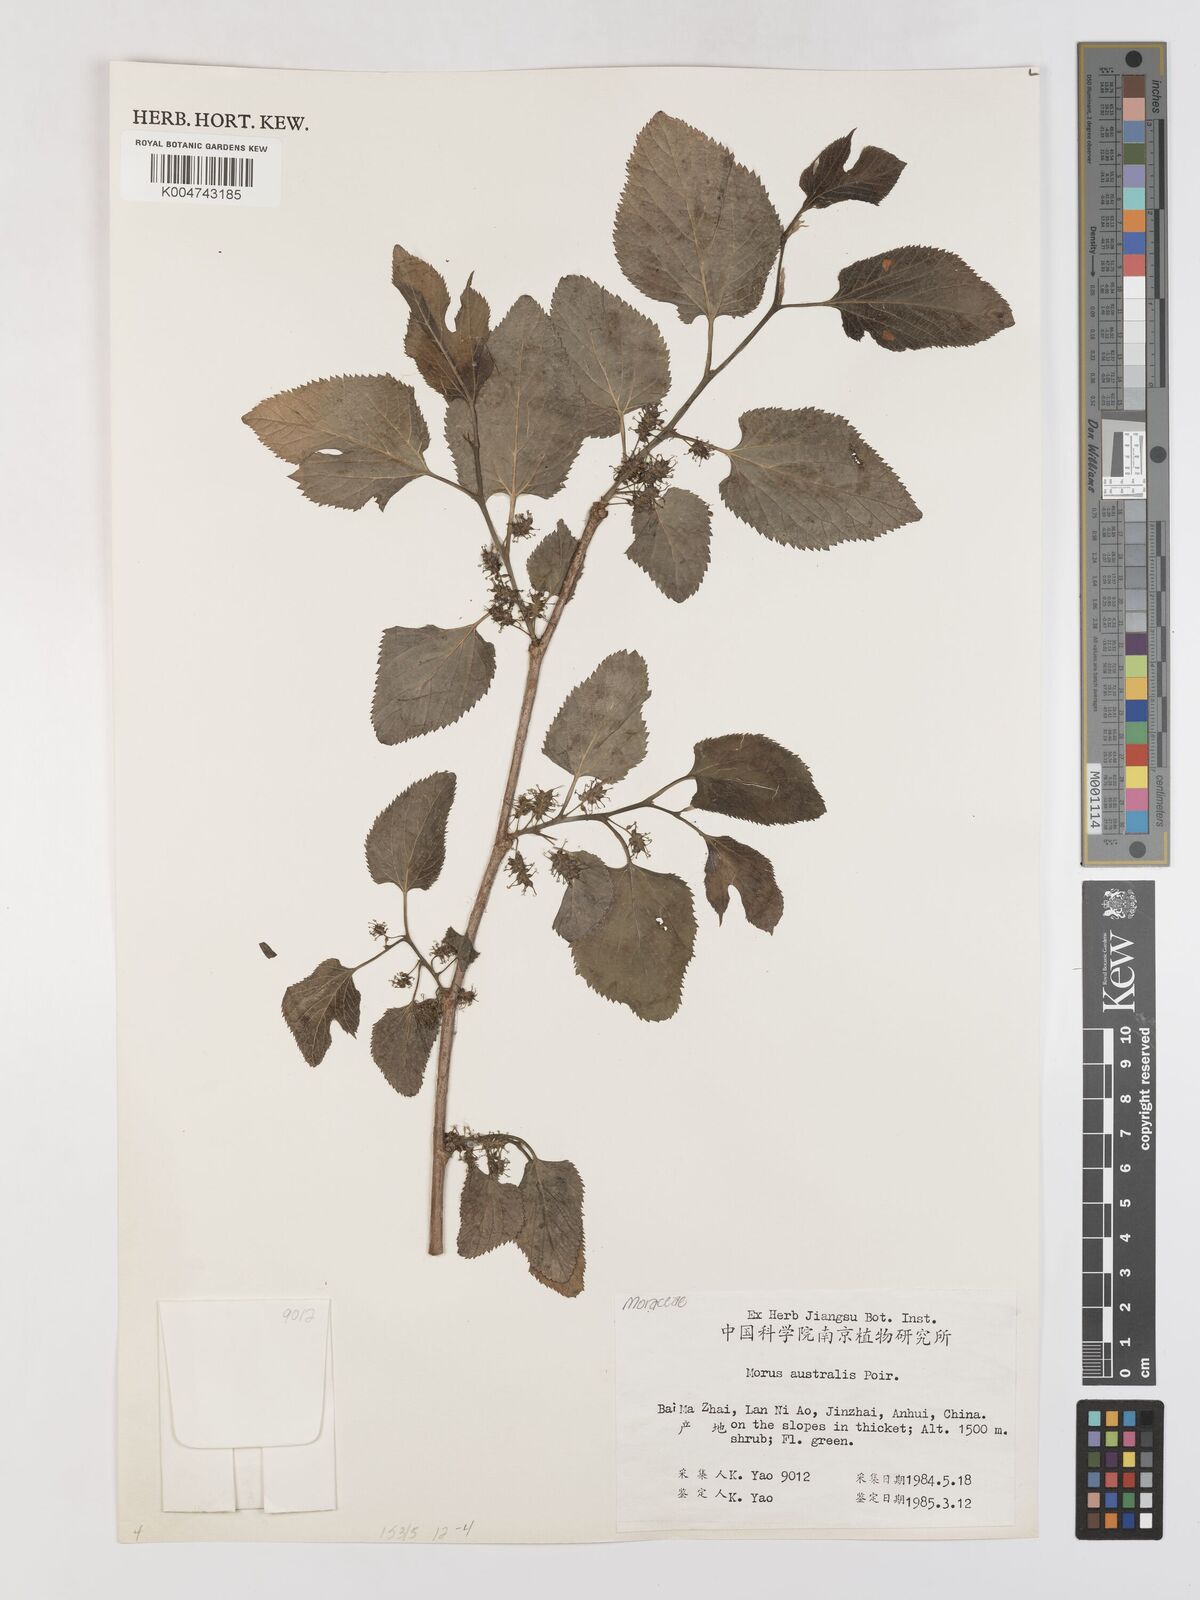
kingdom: Plantae
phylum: Tracheophyta
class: Magnoliopsida
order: Rosales
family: Moraceae
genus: Broussonetia
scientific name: Broussonetia papyrifera
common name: Paper mulberry
